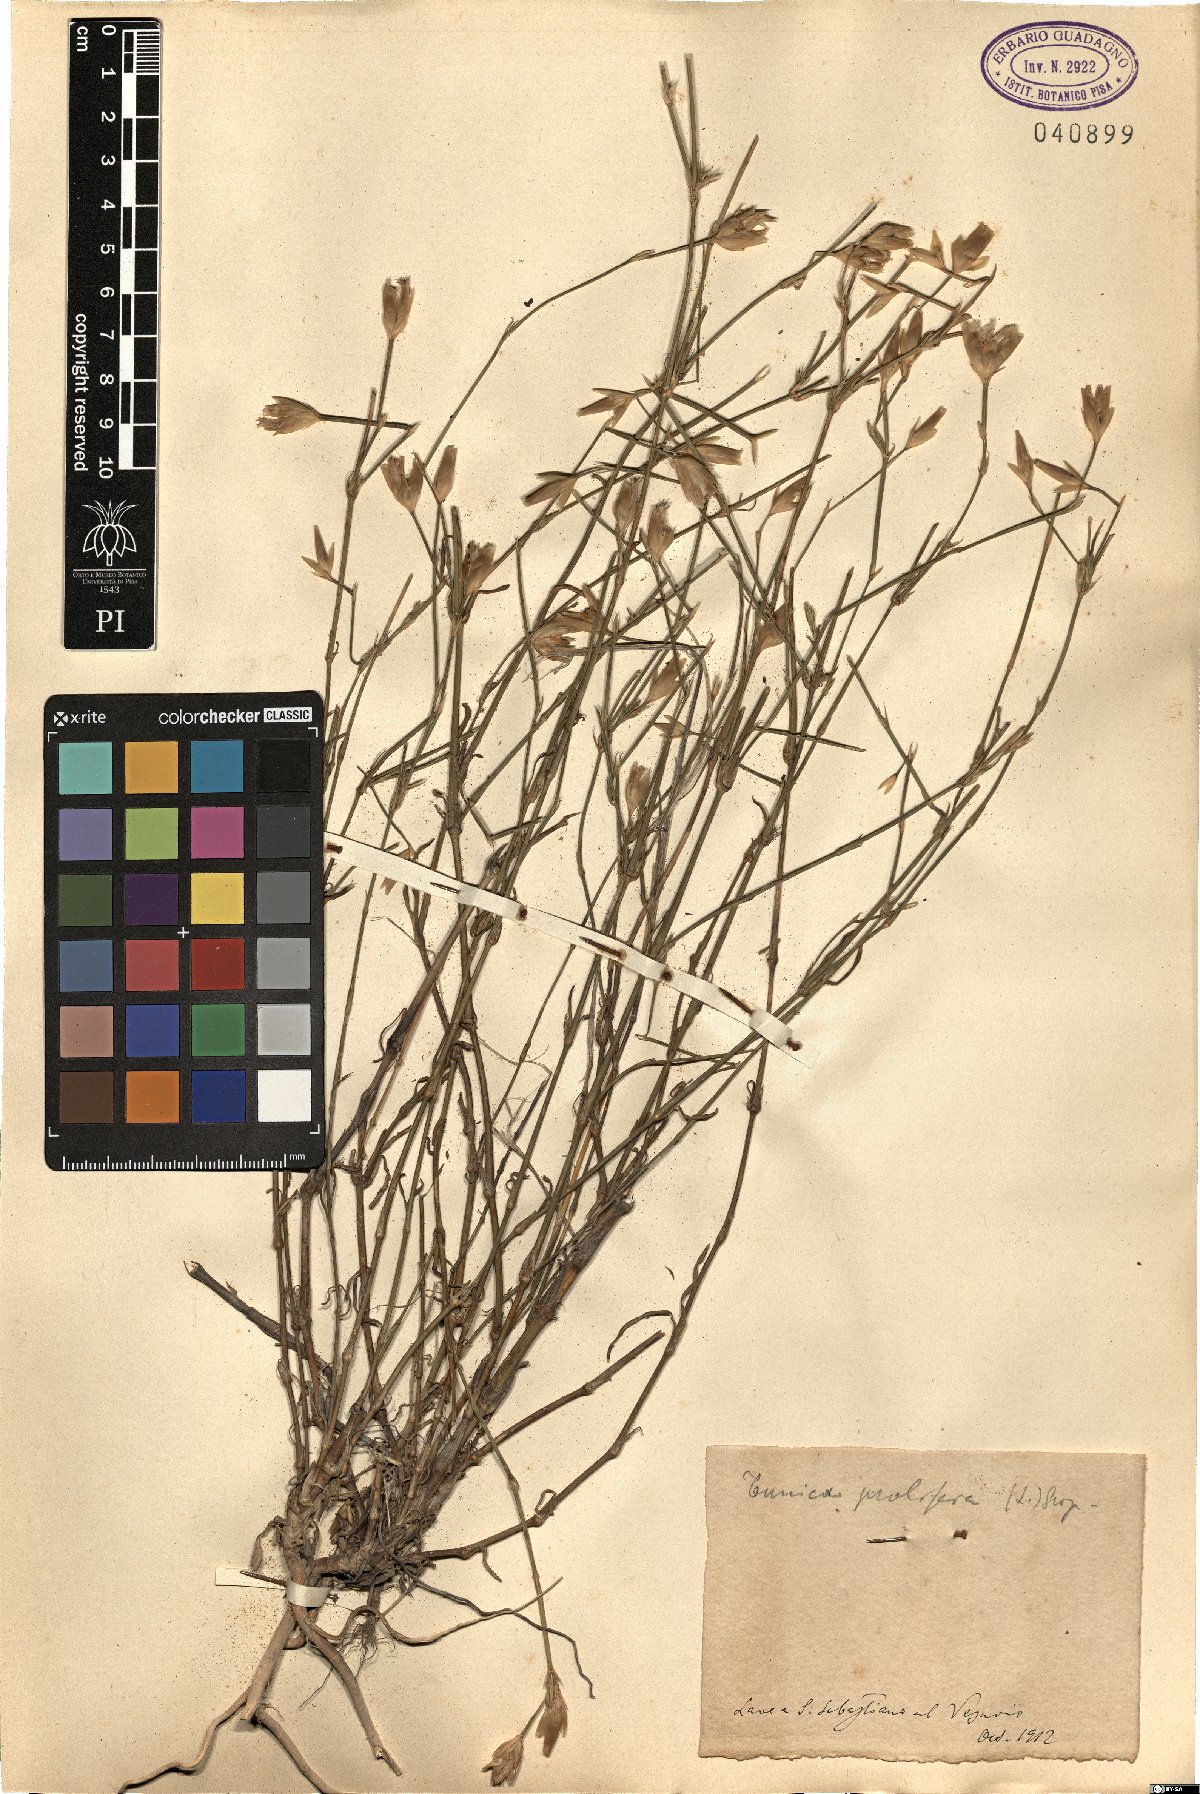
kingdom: Plantae
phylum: Tracheophyta
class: Magnoliopsida
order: Caryophyllales
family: Caryophyllaceae
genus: Petrorhagia
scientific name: Petrorhagia prolifera
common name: Proliferous pink
